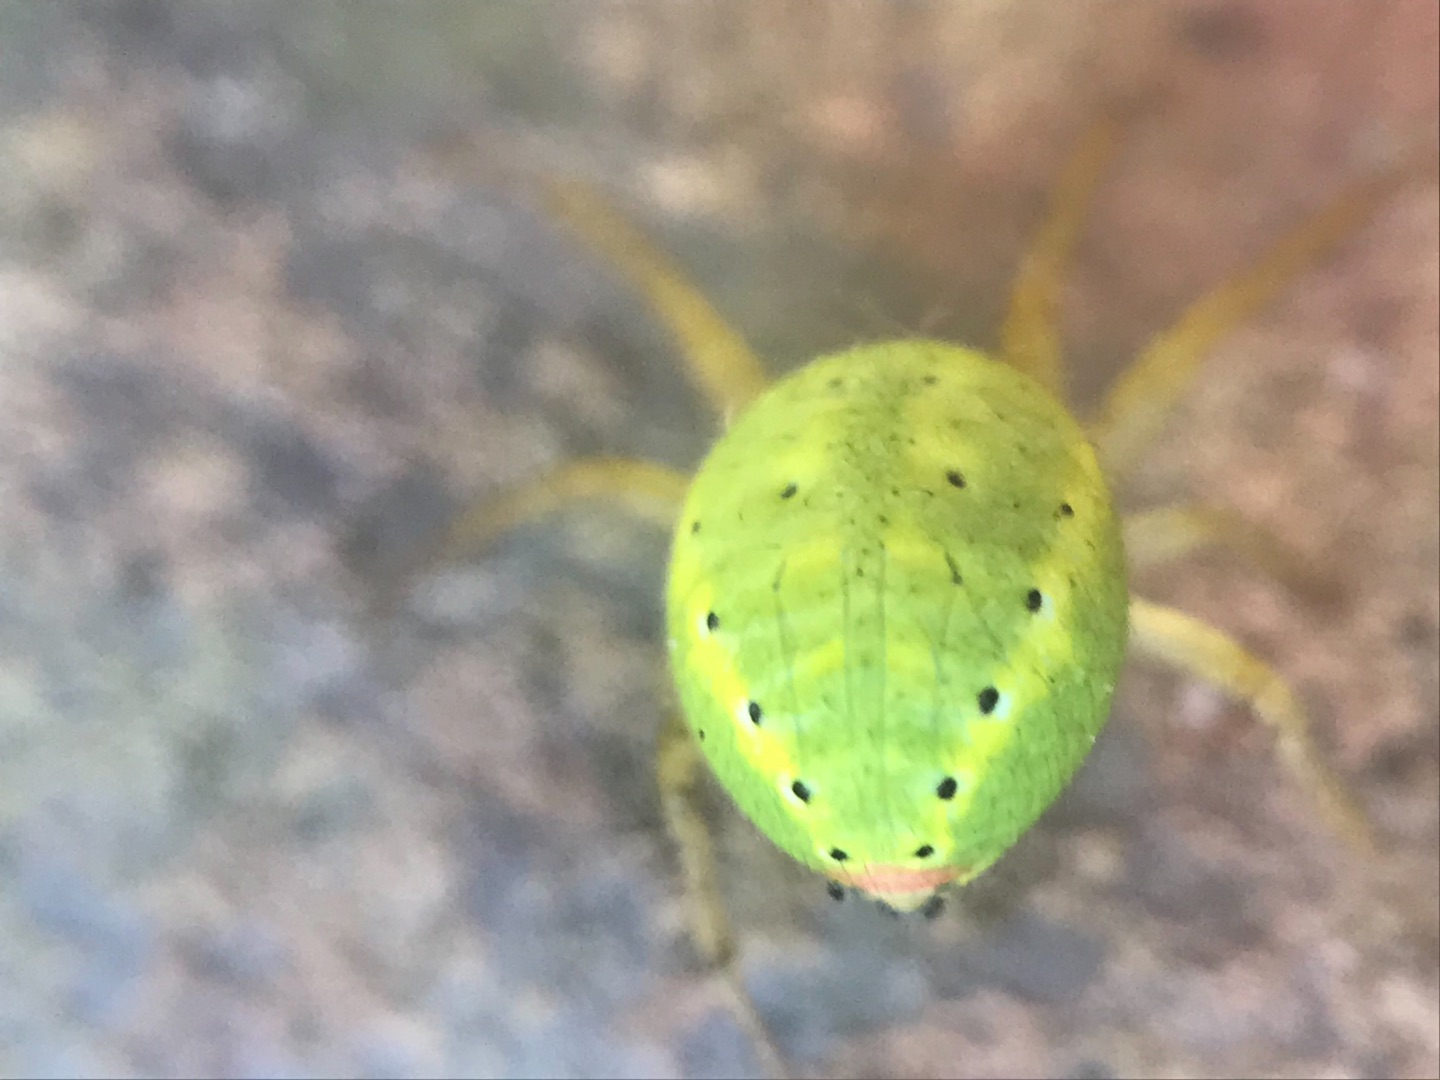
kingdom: Animalia
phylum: Arthropoda
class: Arachnida
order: Araneae
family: Araneidae
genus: Araniella
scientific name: Araniella
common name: Agurkeedderkopslægten
